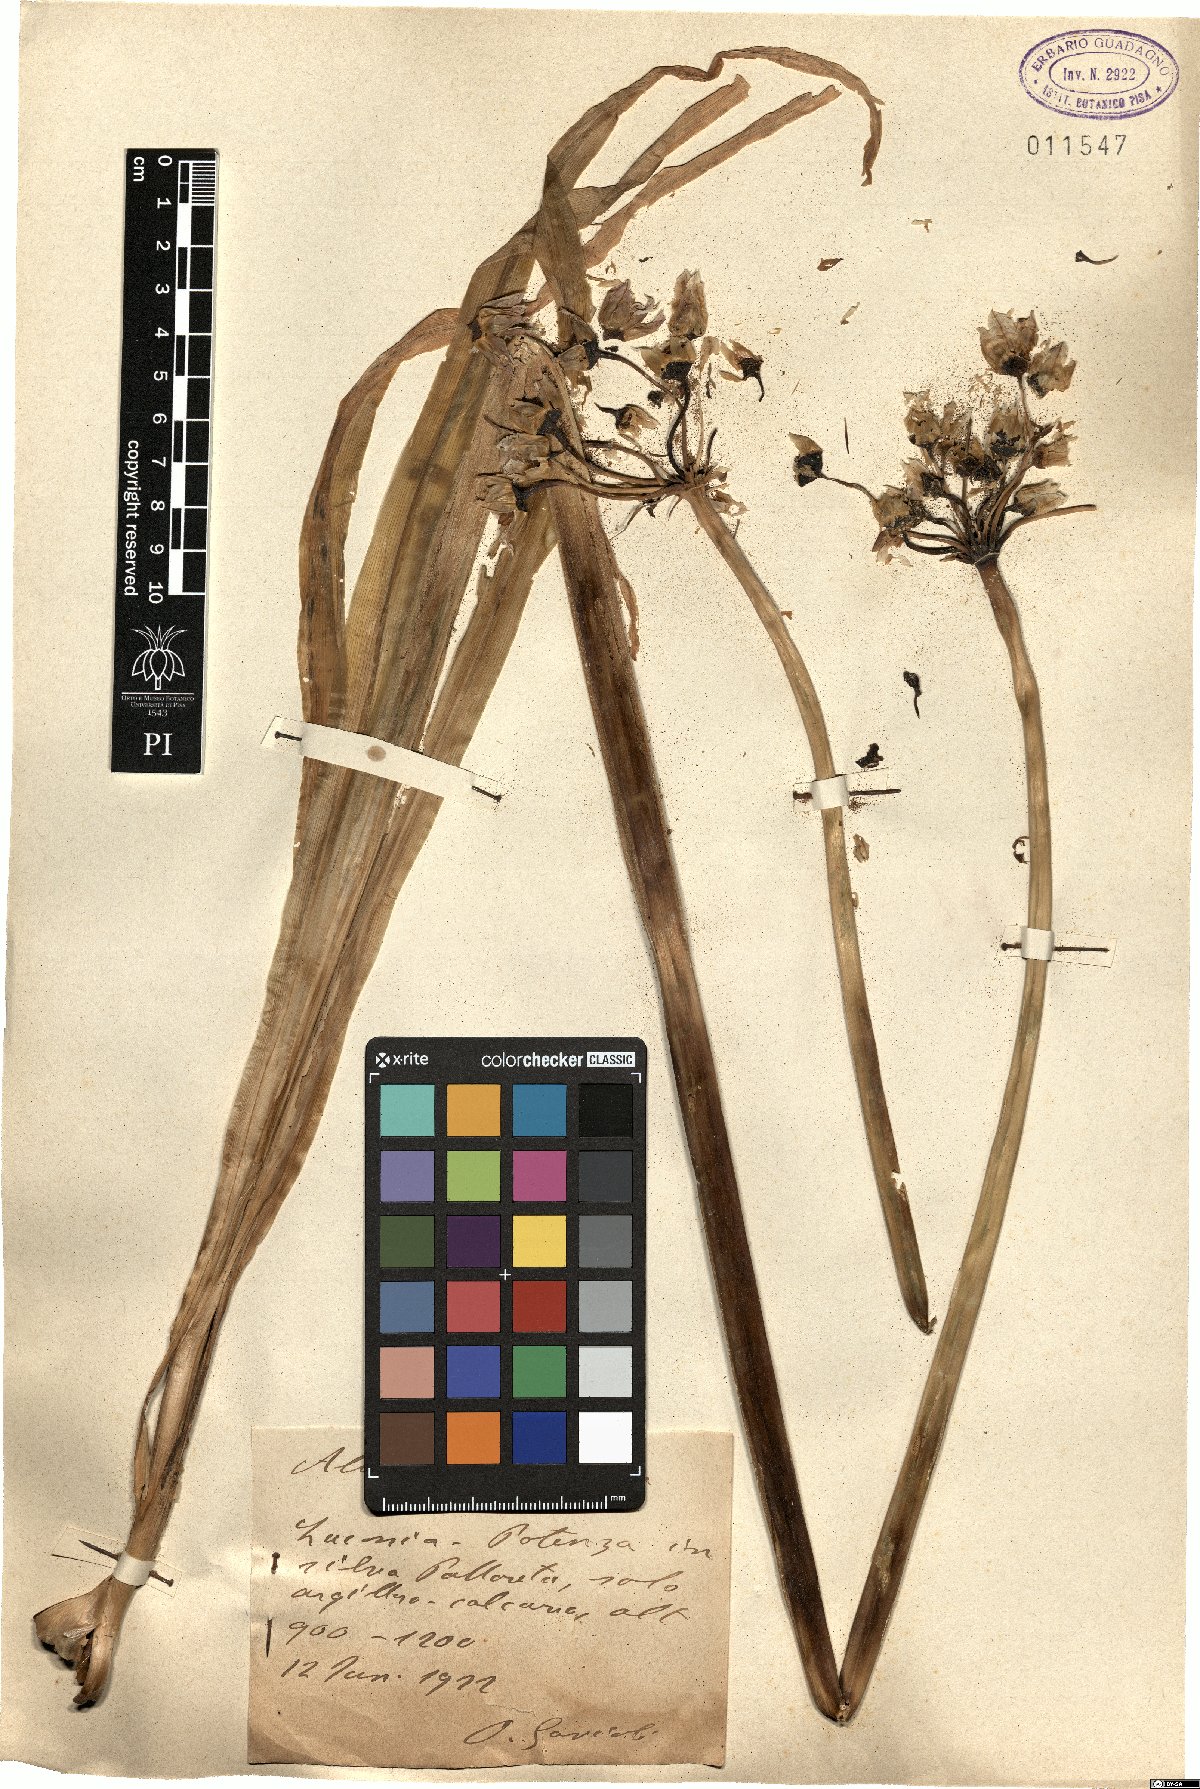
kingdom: Plantae
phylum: Tracheophyta
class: Liliopsida
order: Asparagales
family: Amaryllidaceae
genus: Allium
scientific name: Allium
